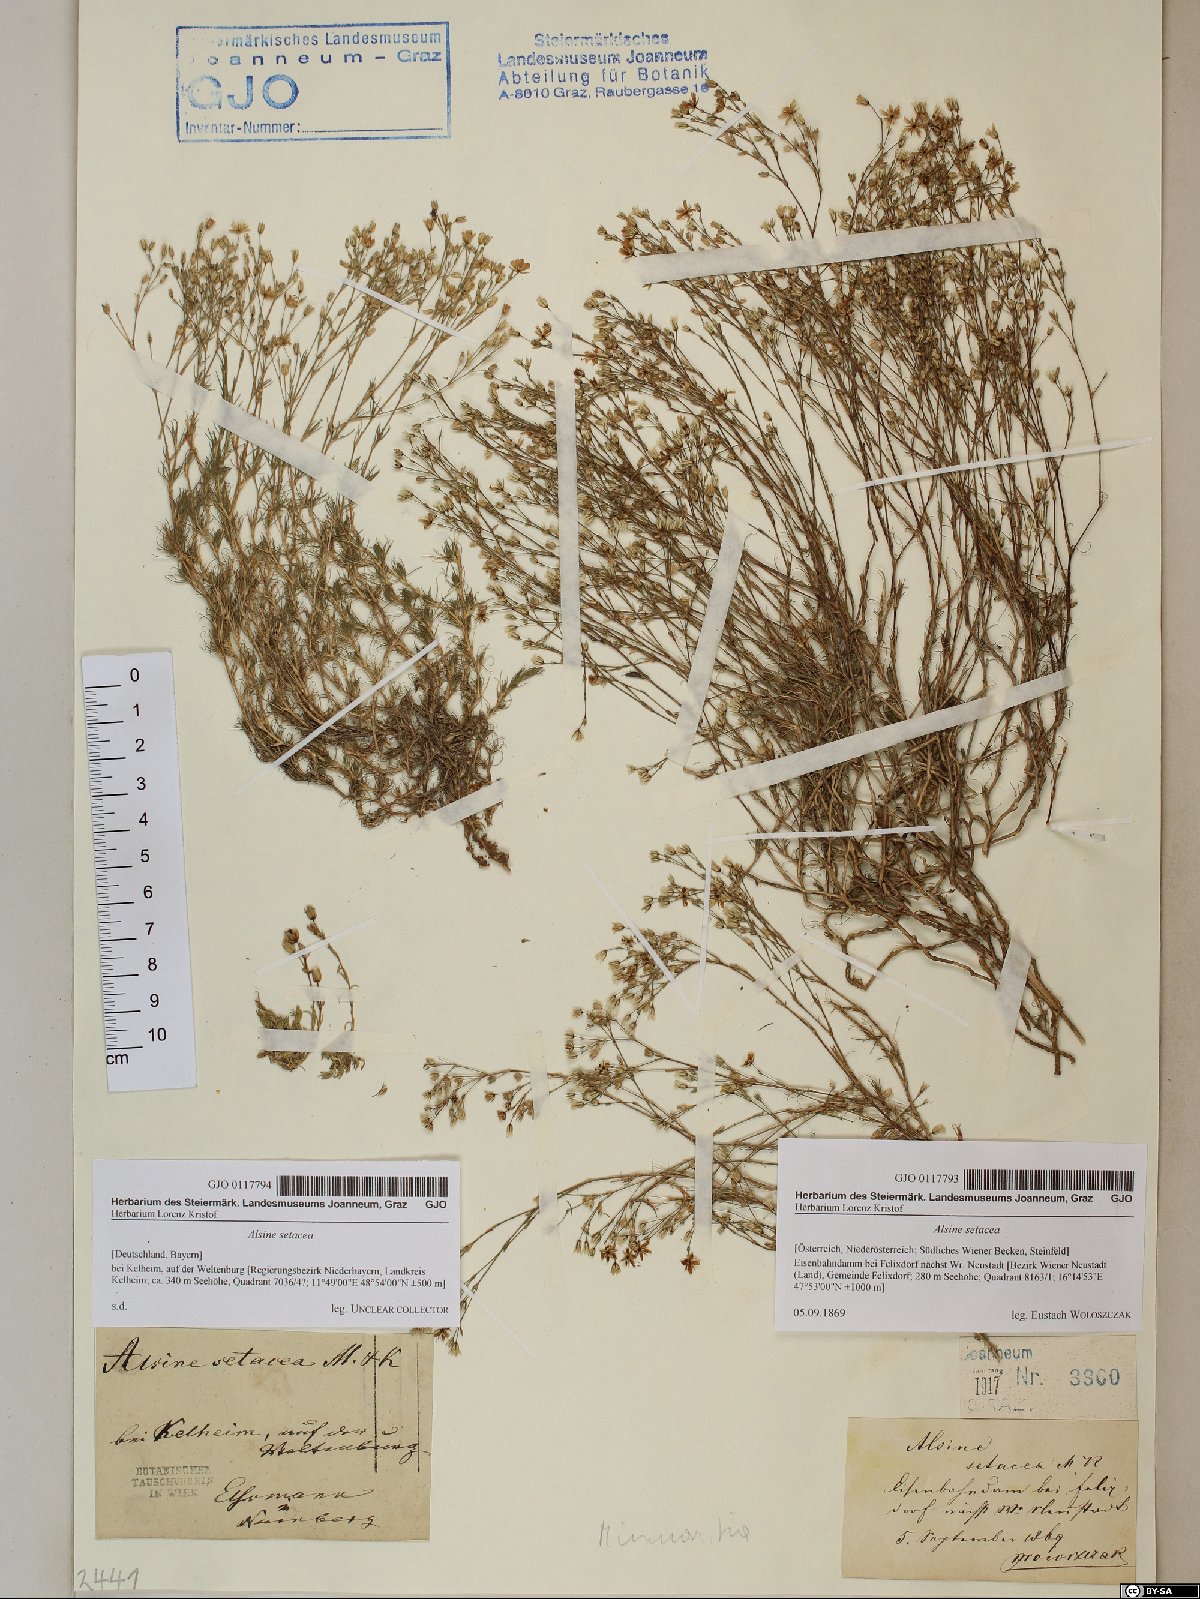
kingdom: Plantae
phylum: Tracheophyta
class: Magnoliopsida
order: Caryophyllales
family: Caryophyllaceae
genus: Minuartia
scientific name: Minuartia setacea
